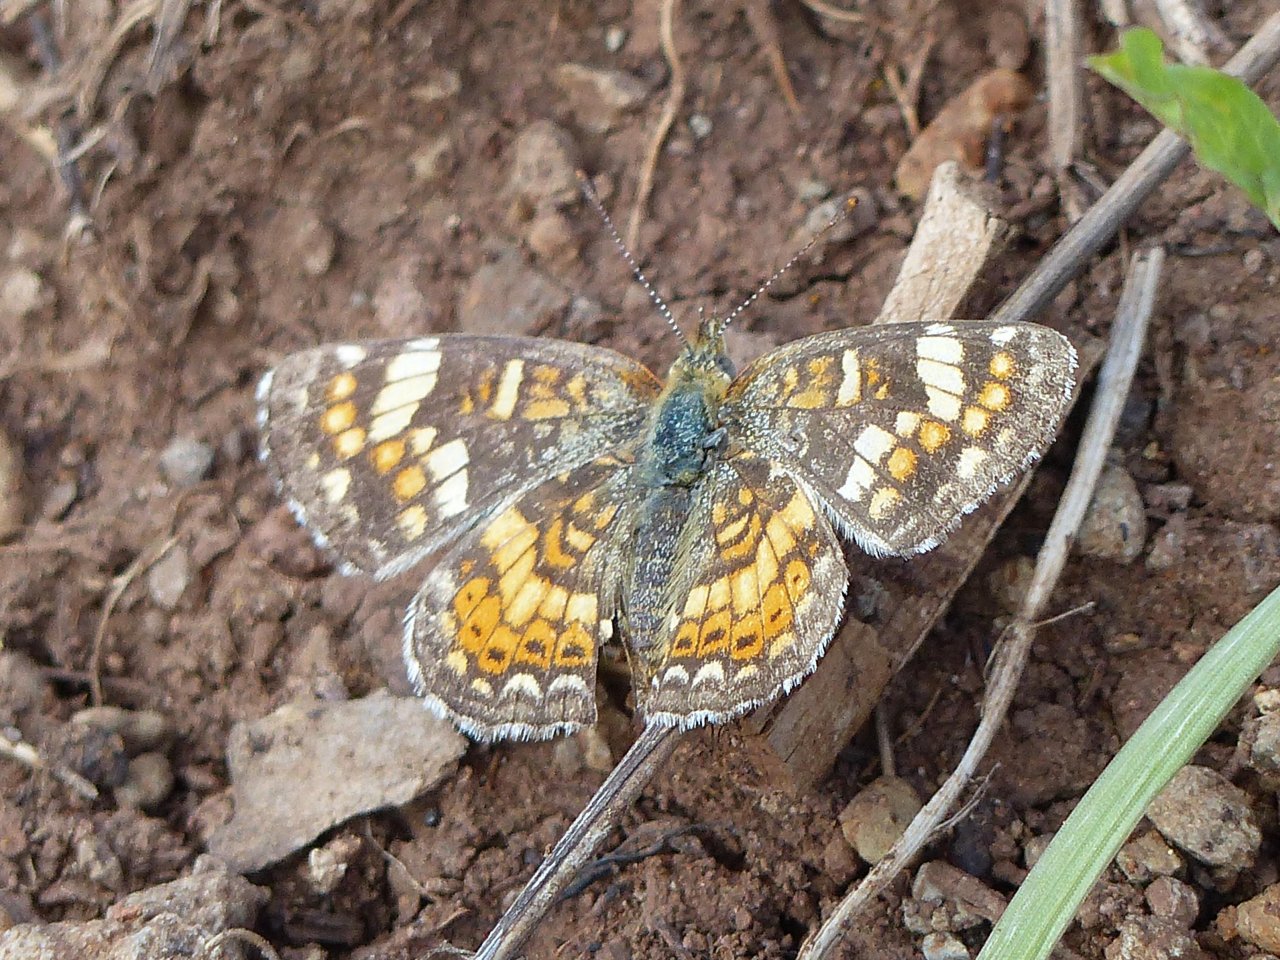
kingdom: Animalia
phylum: Arthropoda
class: Insecta
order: Lepidoptera
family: Nymphalidae
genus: Phyciodes
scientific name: Phyciodes picta
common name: Painted Crescent
